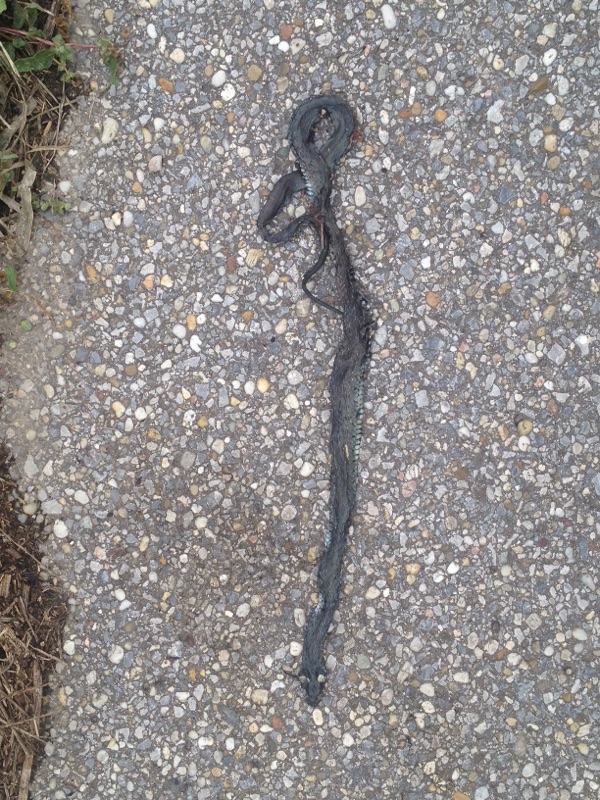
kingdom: Animalia
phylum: Chordata
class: Squamata
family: Colubridae
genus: Natrix
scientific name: Natrix natrix
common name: Grass snake
